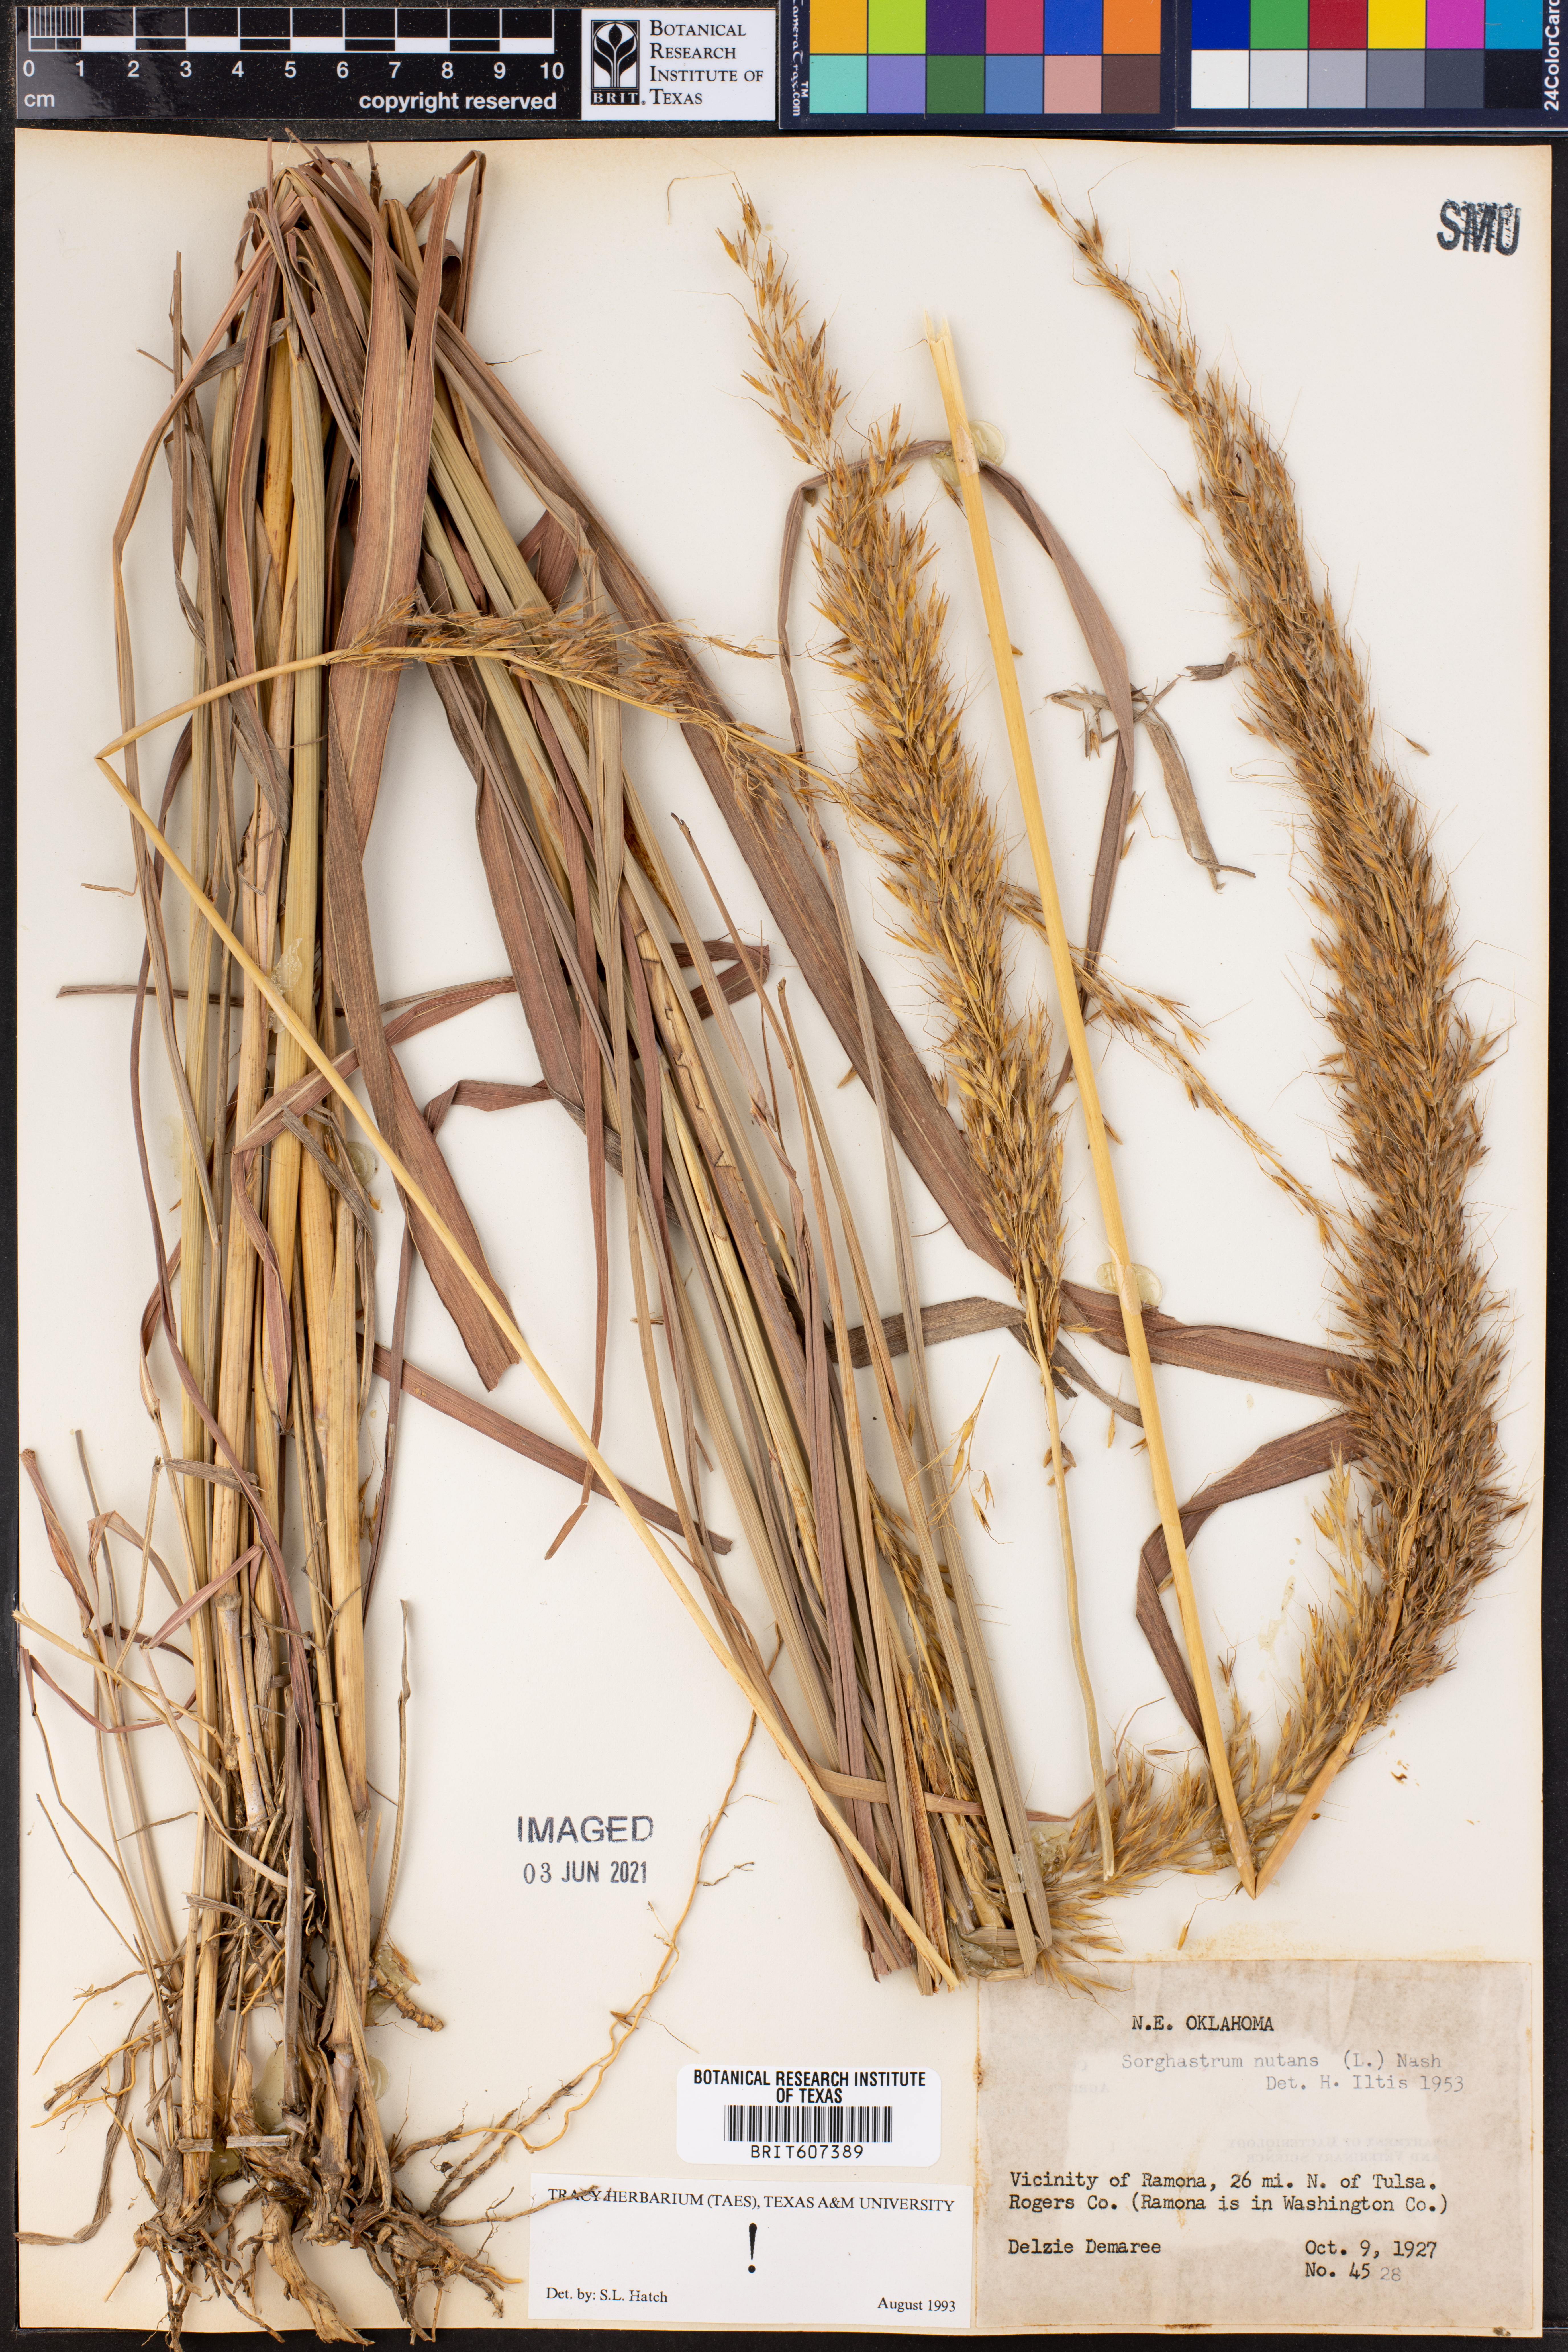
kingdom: Plantae
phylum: Tracheophyta
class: Liliopsida
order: Poales
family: Poaceae
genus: Sorghastrum
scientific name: Sorghastrum nutans
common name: Indian grass
